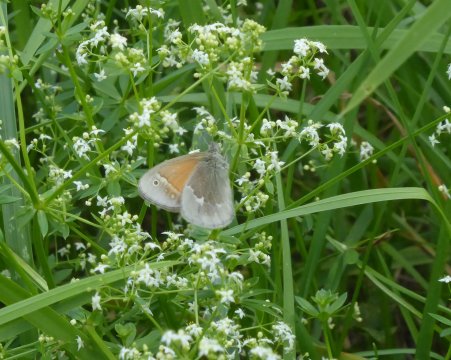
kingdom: Animalia
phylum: Arthropoda
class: Insecta
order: Lepidoptera
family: Nymphalidae
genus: Coenonympha
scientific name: Coenonympha tullia
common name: Large Heath
